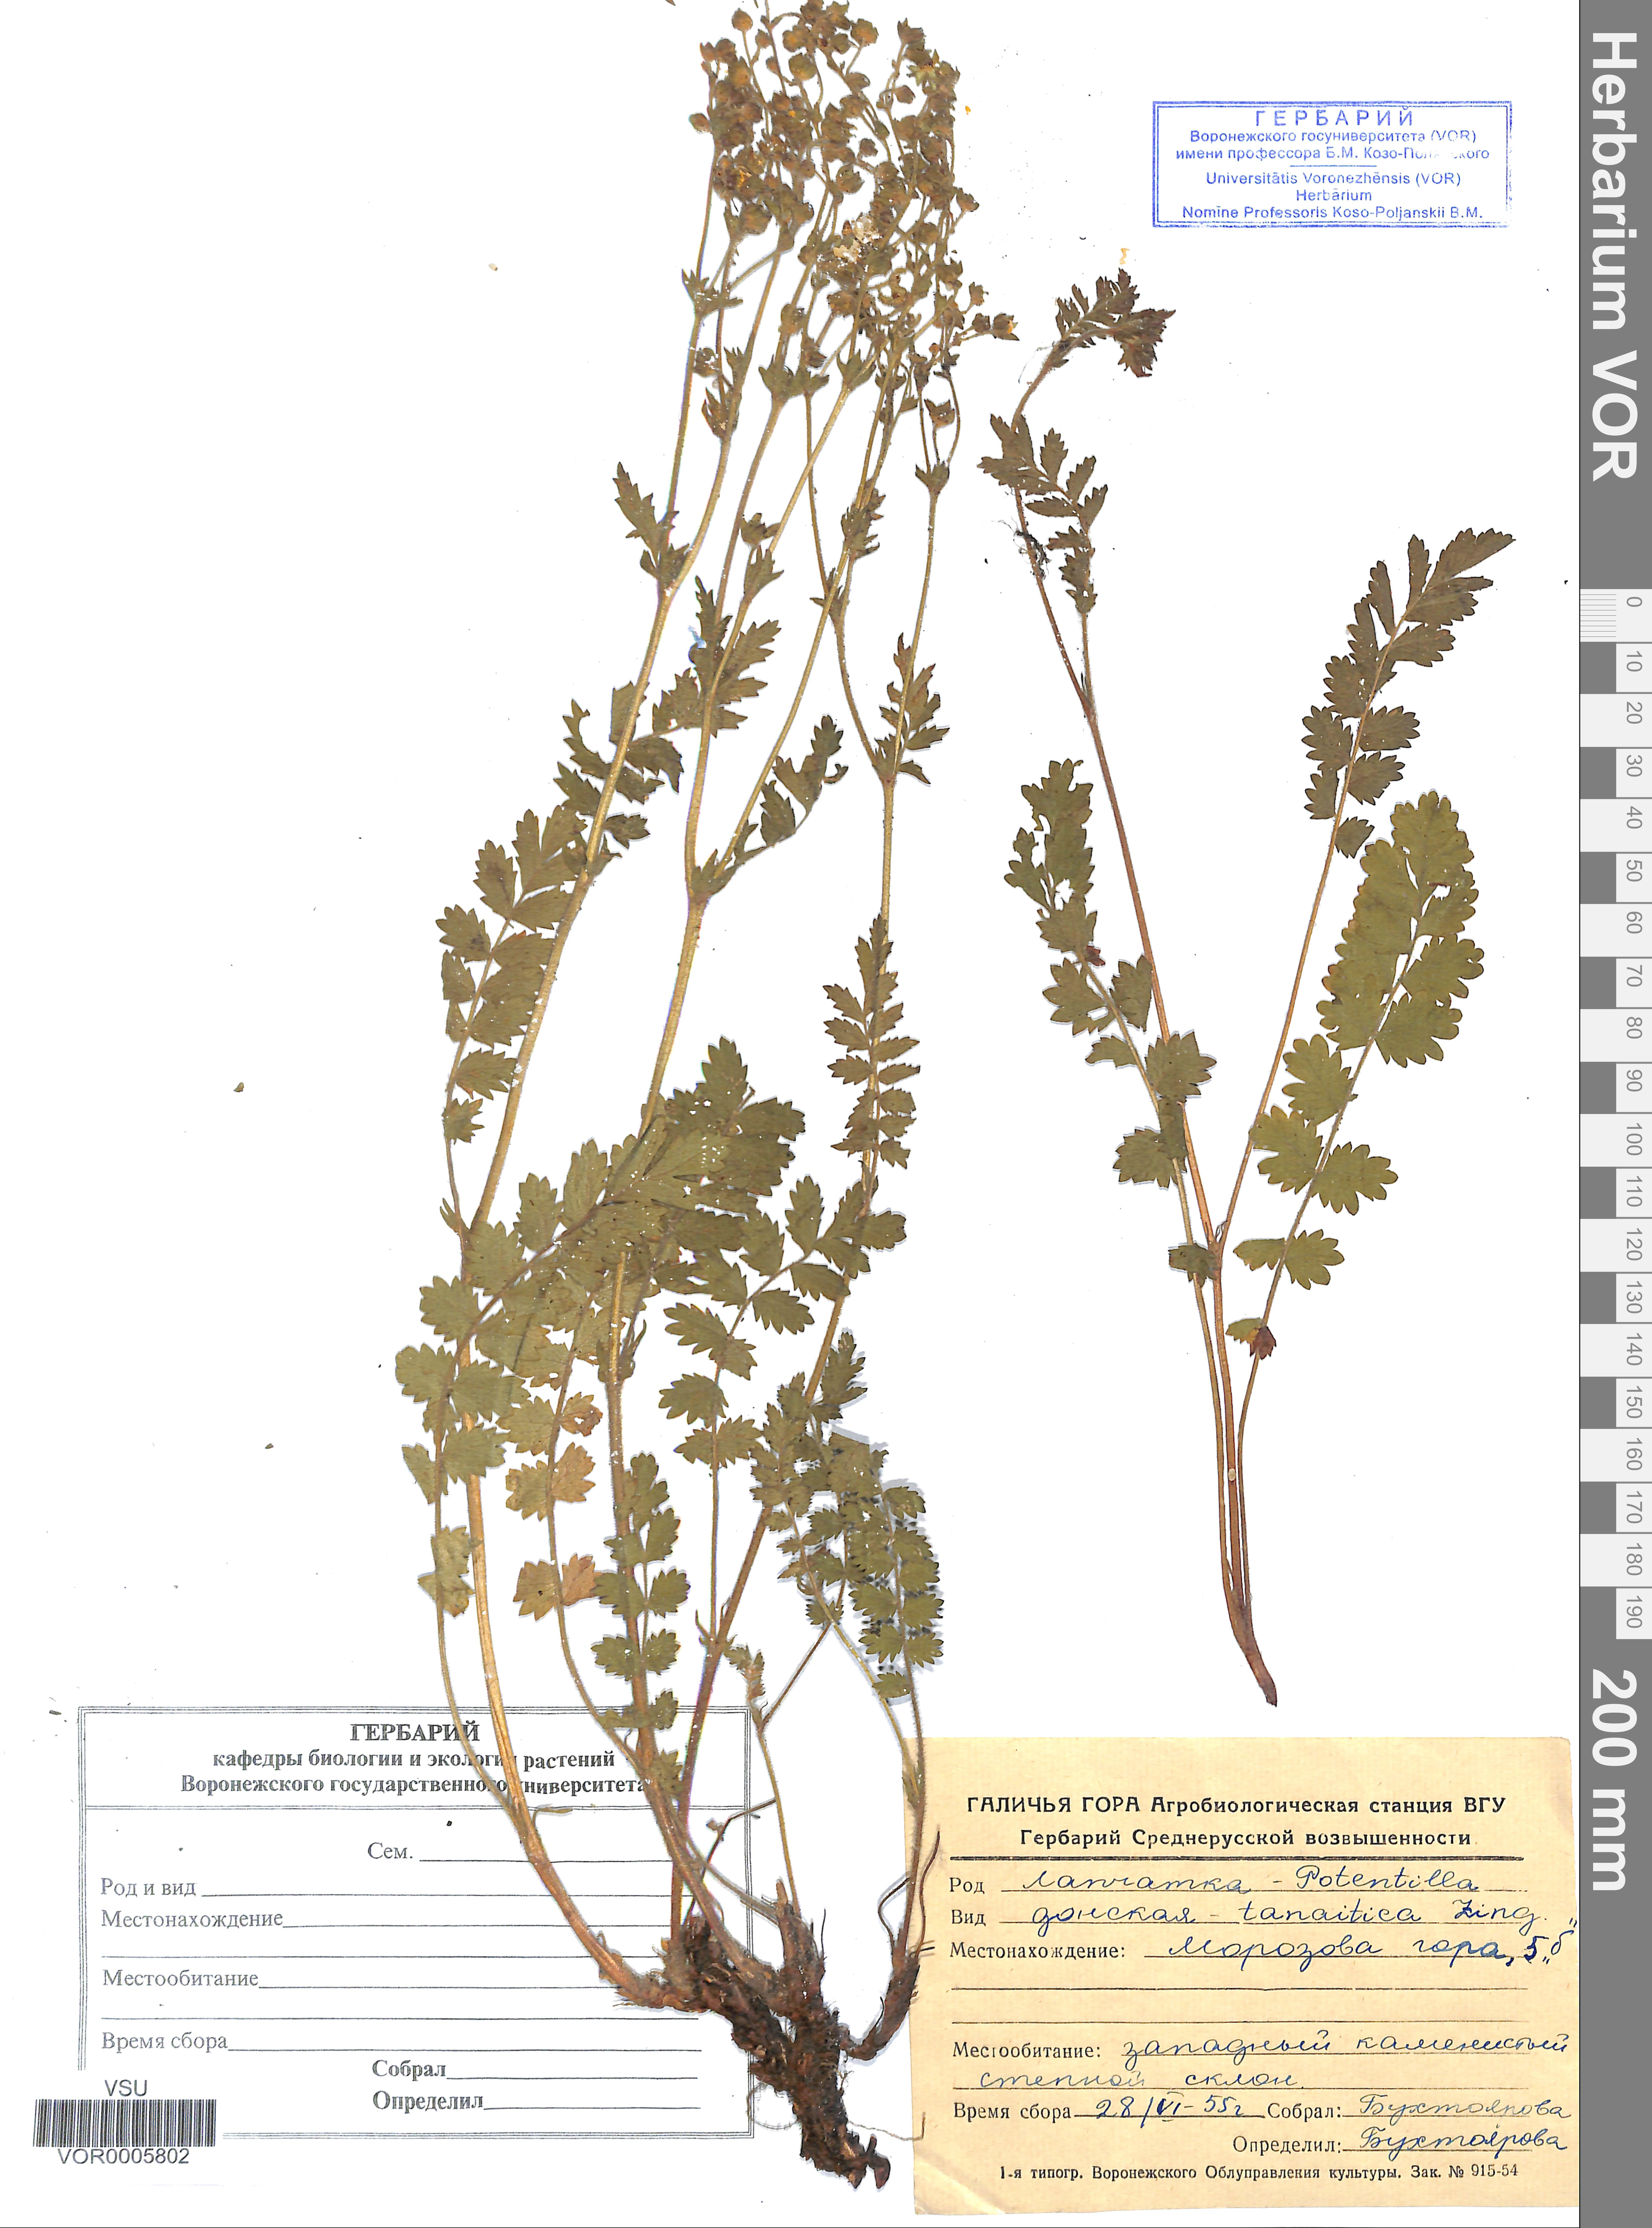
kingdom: Plantae
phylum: Tracheophyta
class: Magnoliopsida
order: Rosales
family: Rosaceae
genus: Potentilla
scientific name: Potentilla tanaitica
